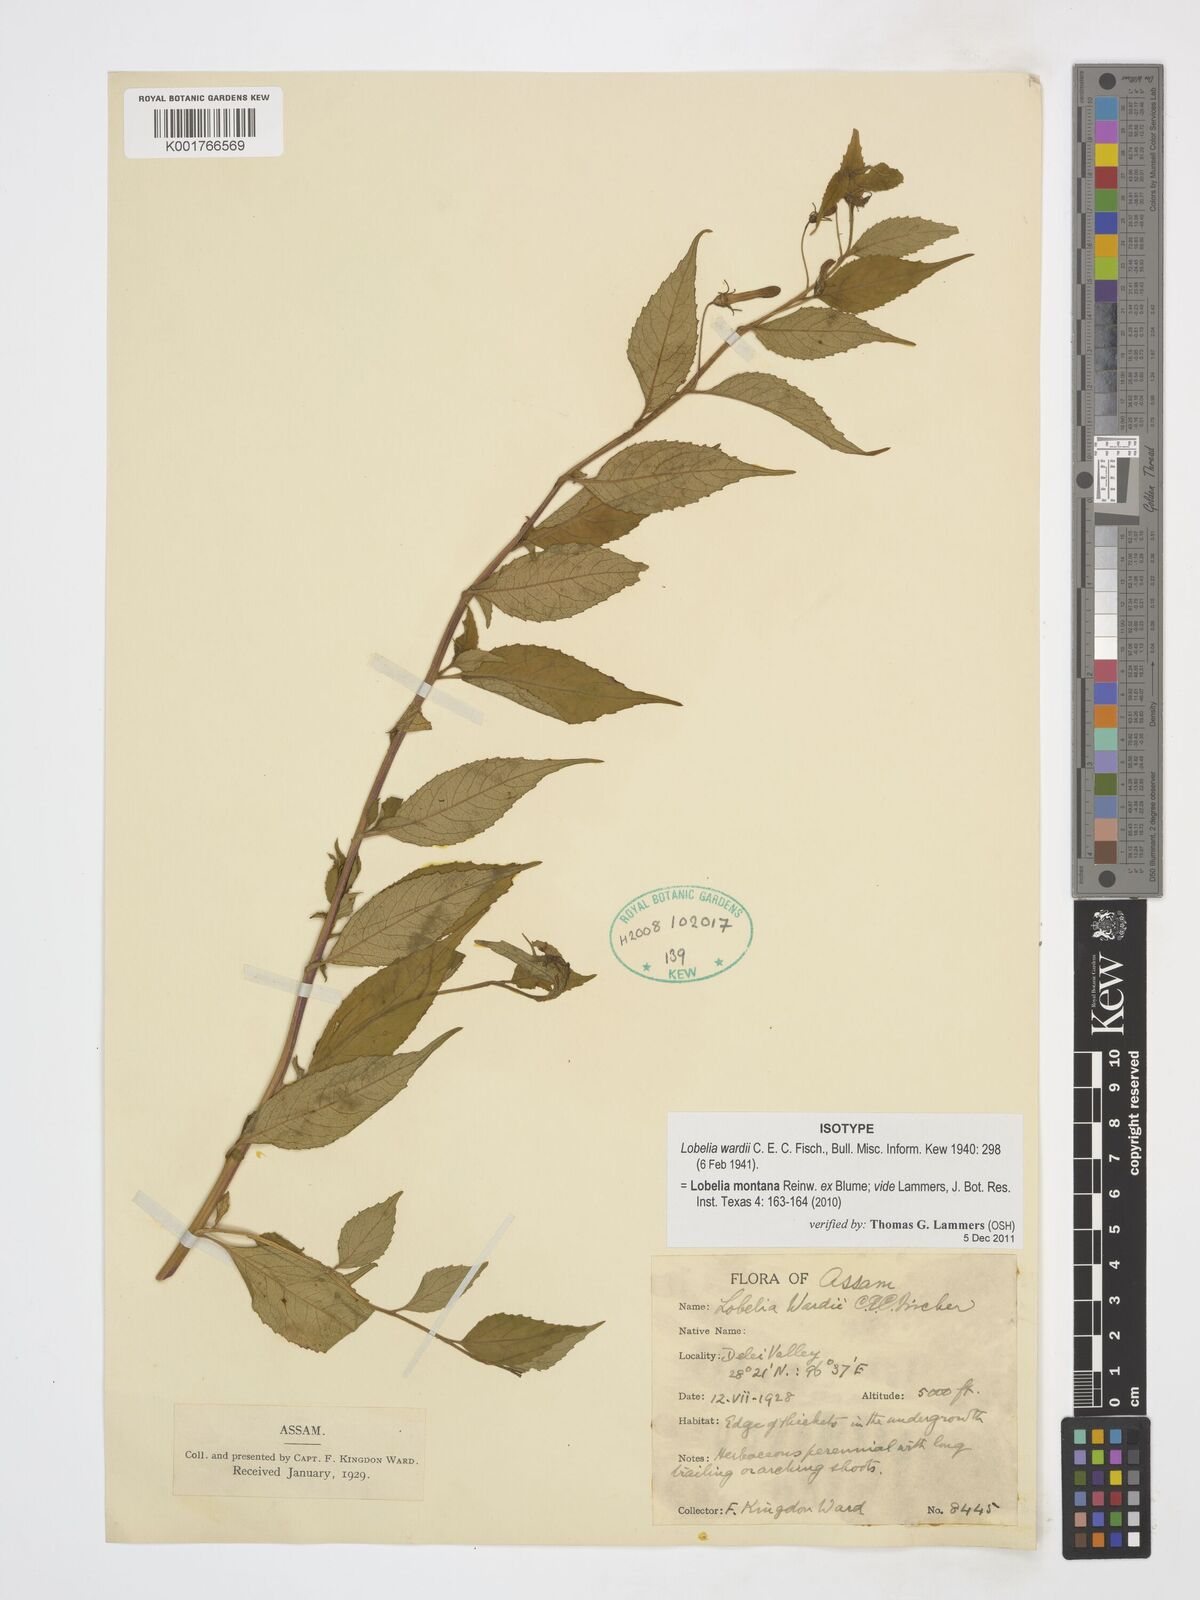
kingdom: Plantae
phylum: Tracheophyta
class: Magnoliopsida
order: Asterales
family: Campanulaceae
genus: Lobelia
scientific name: Lobelia montana
